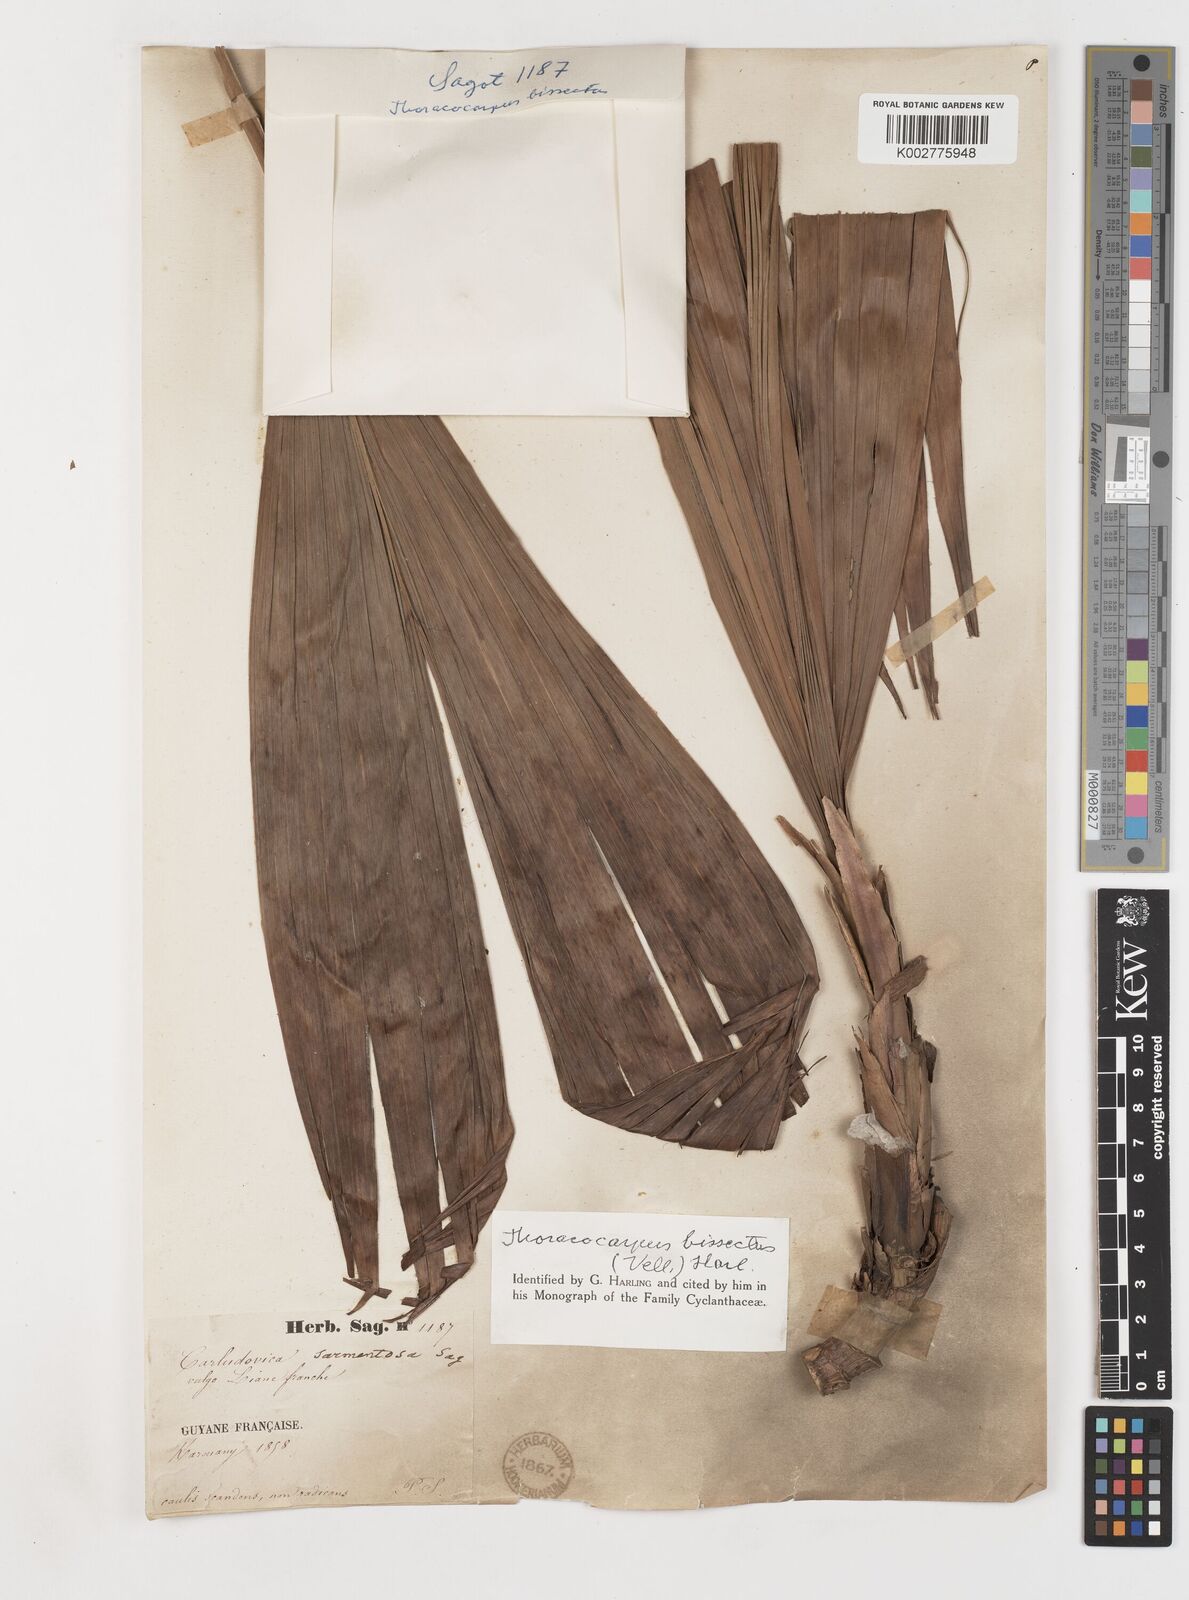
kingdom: Plantae
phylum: Tracheophyta
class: Liliopsida
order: Pandanales
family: Cyclanthaceae
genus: Thoracocarpus
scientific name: Thoracocarpus bissectus
